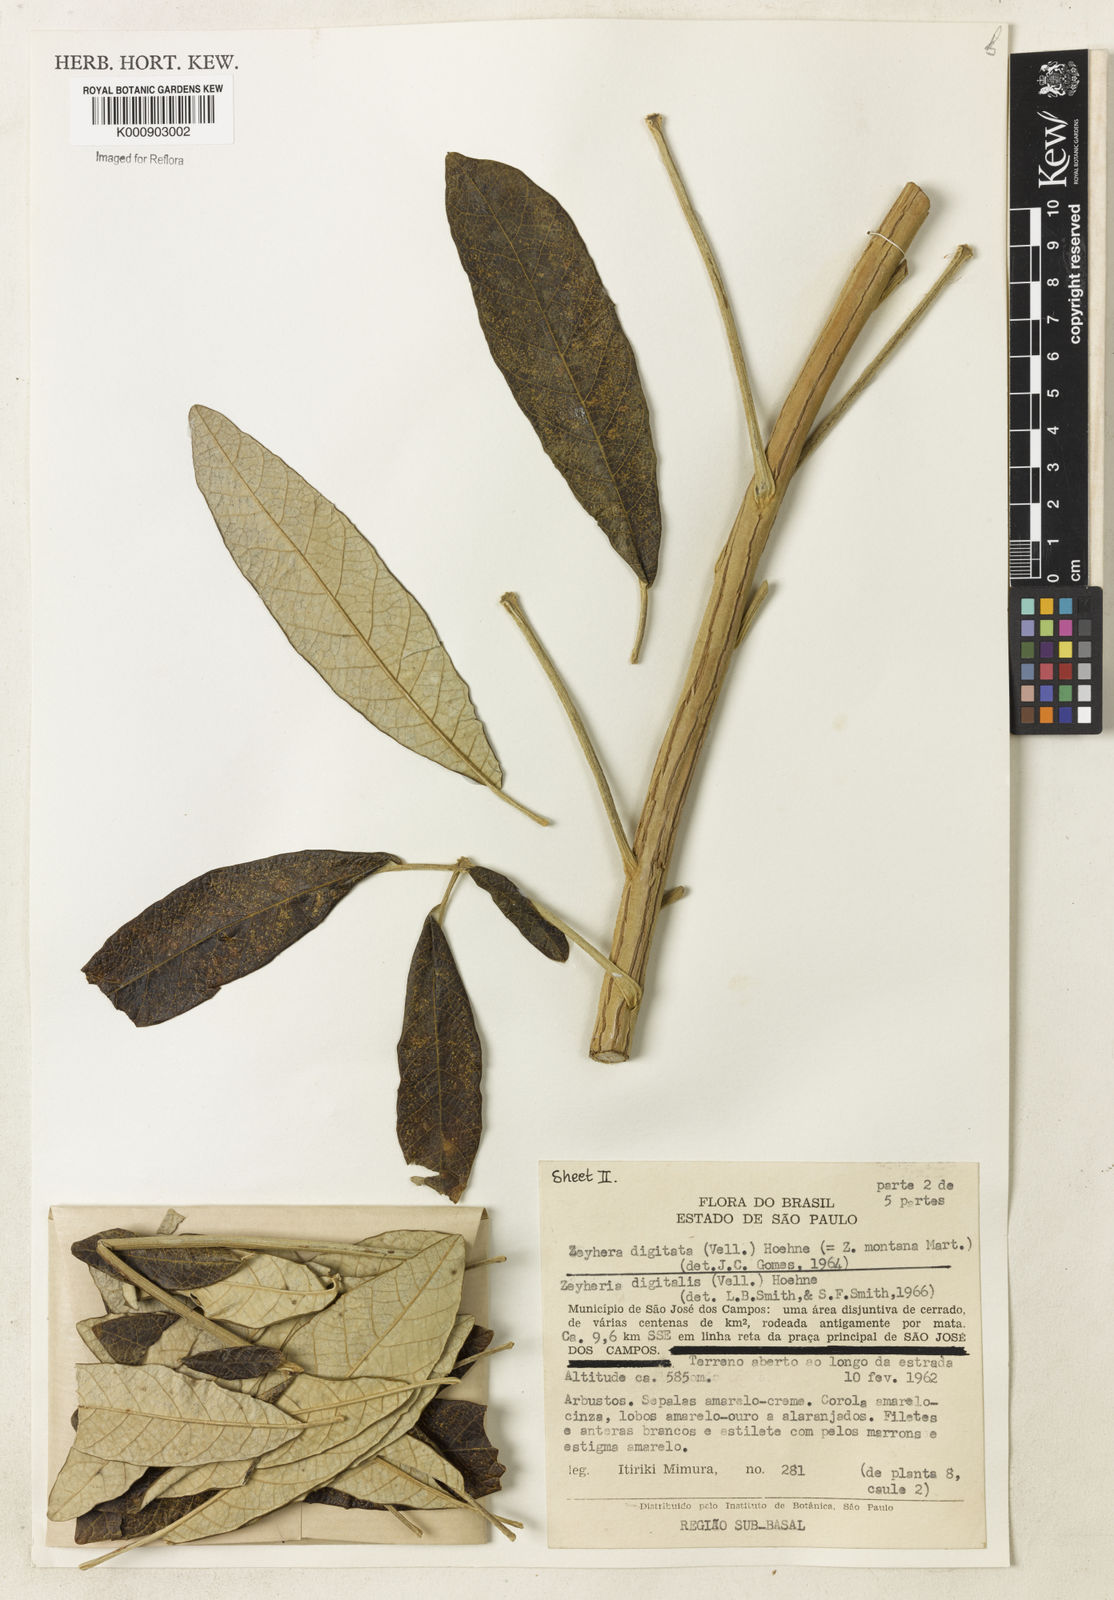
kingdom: Plantae
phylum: Tracheophyta
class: Magnoliopsida
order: Lamiales
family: Bignoniaceae
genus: Zeyheria
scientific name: Zeyheria
